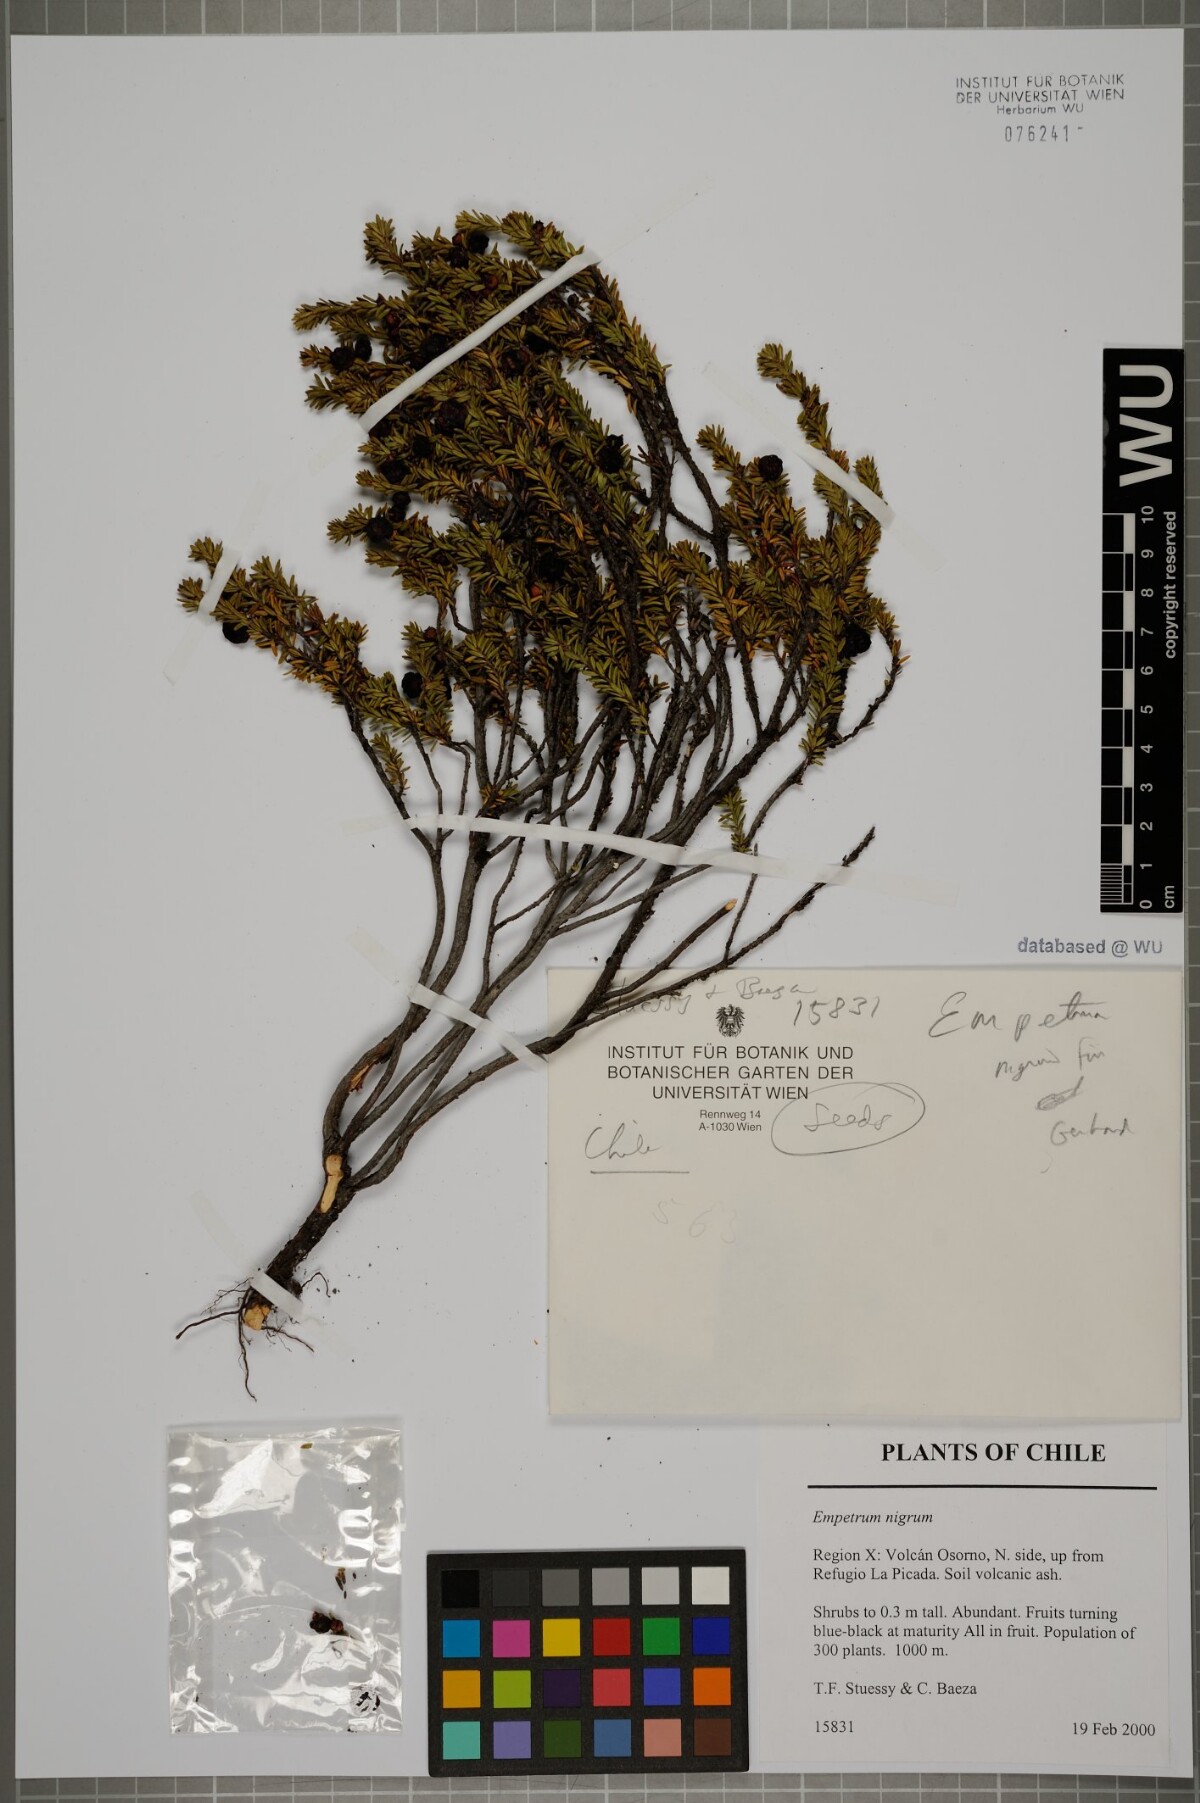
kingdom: Plantae
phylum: Tracheophyta
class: Magnoliopsida
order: Ericales
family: Ericaceae
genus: Empetrum
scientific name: Empetrum nigrum
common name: Black crowberry
